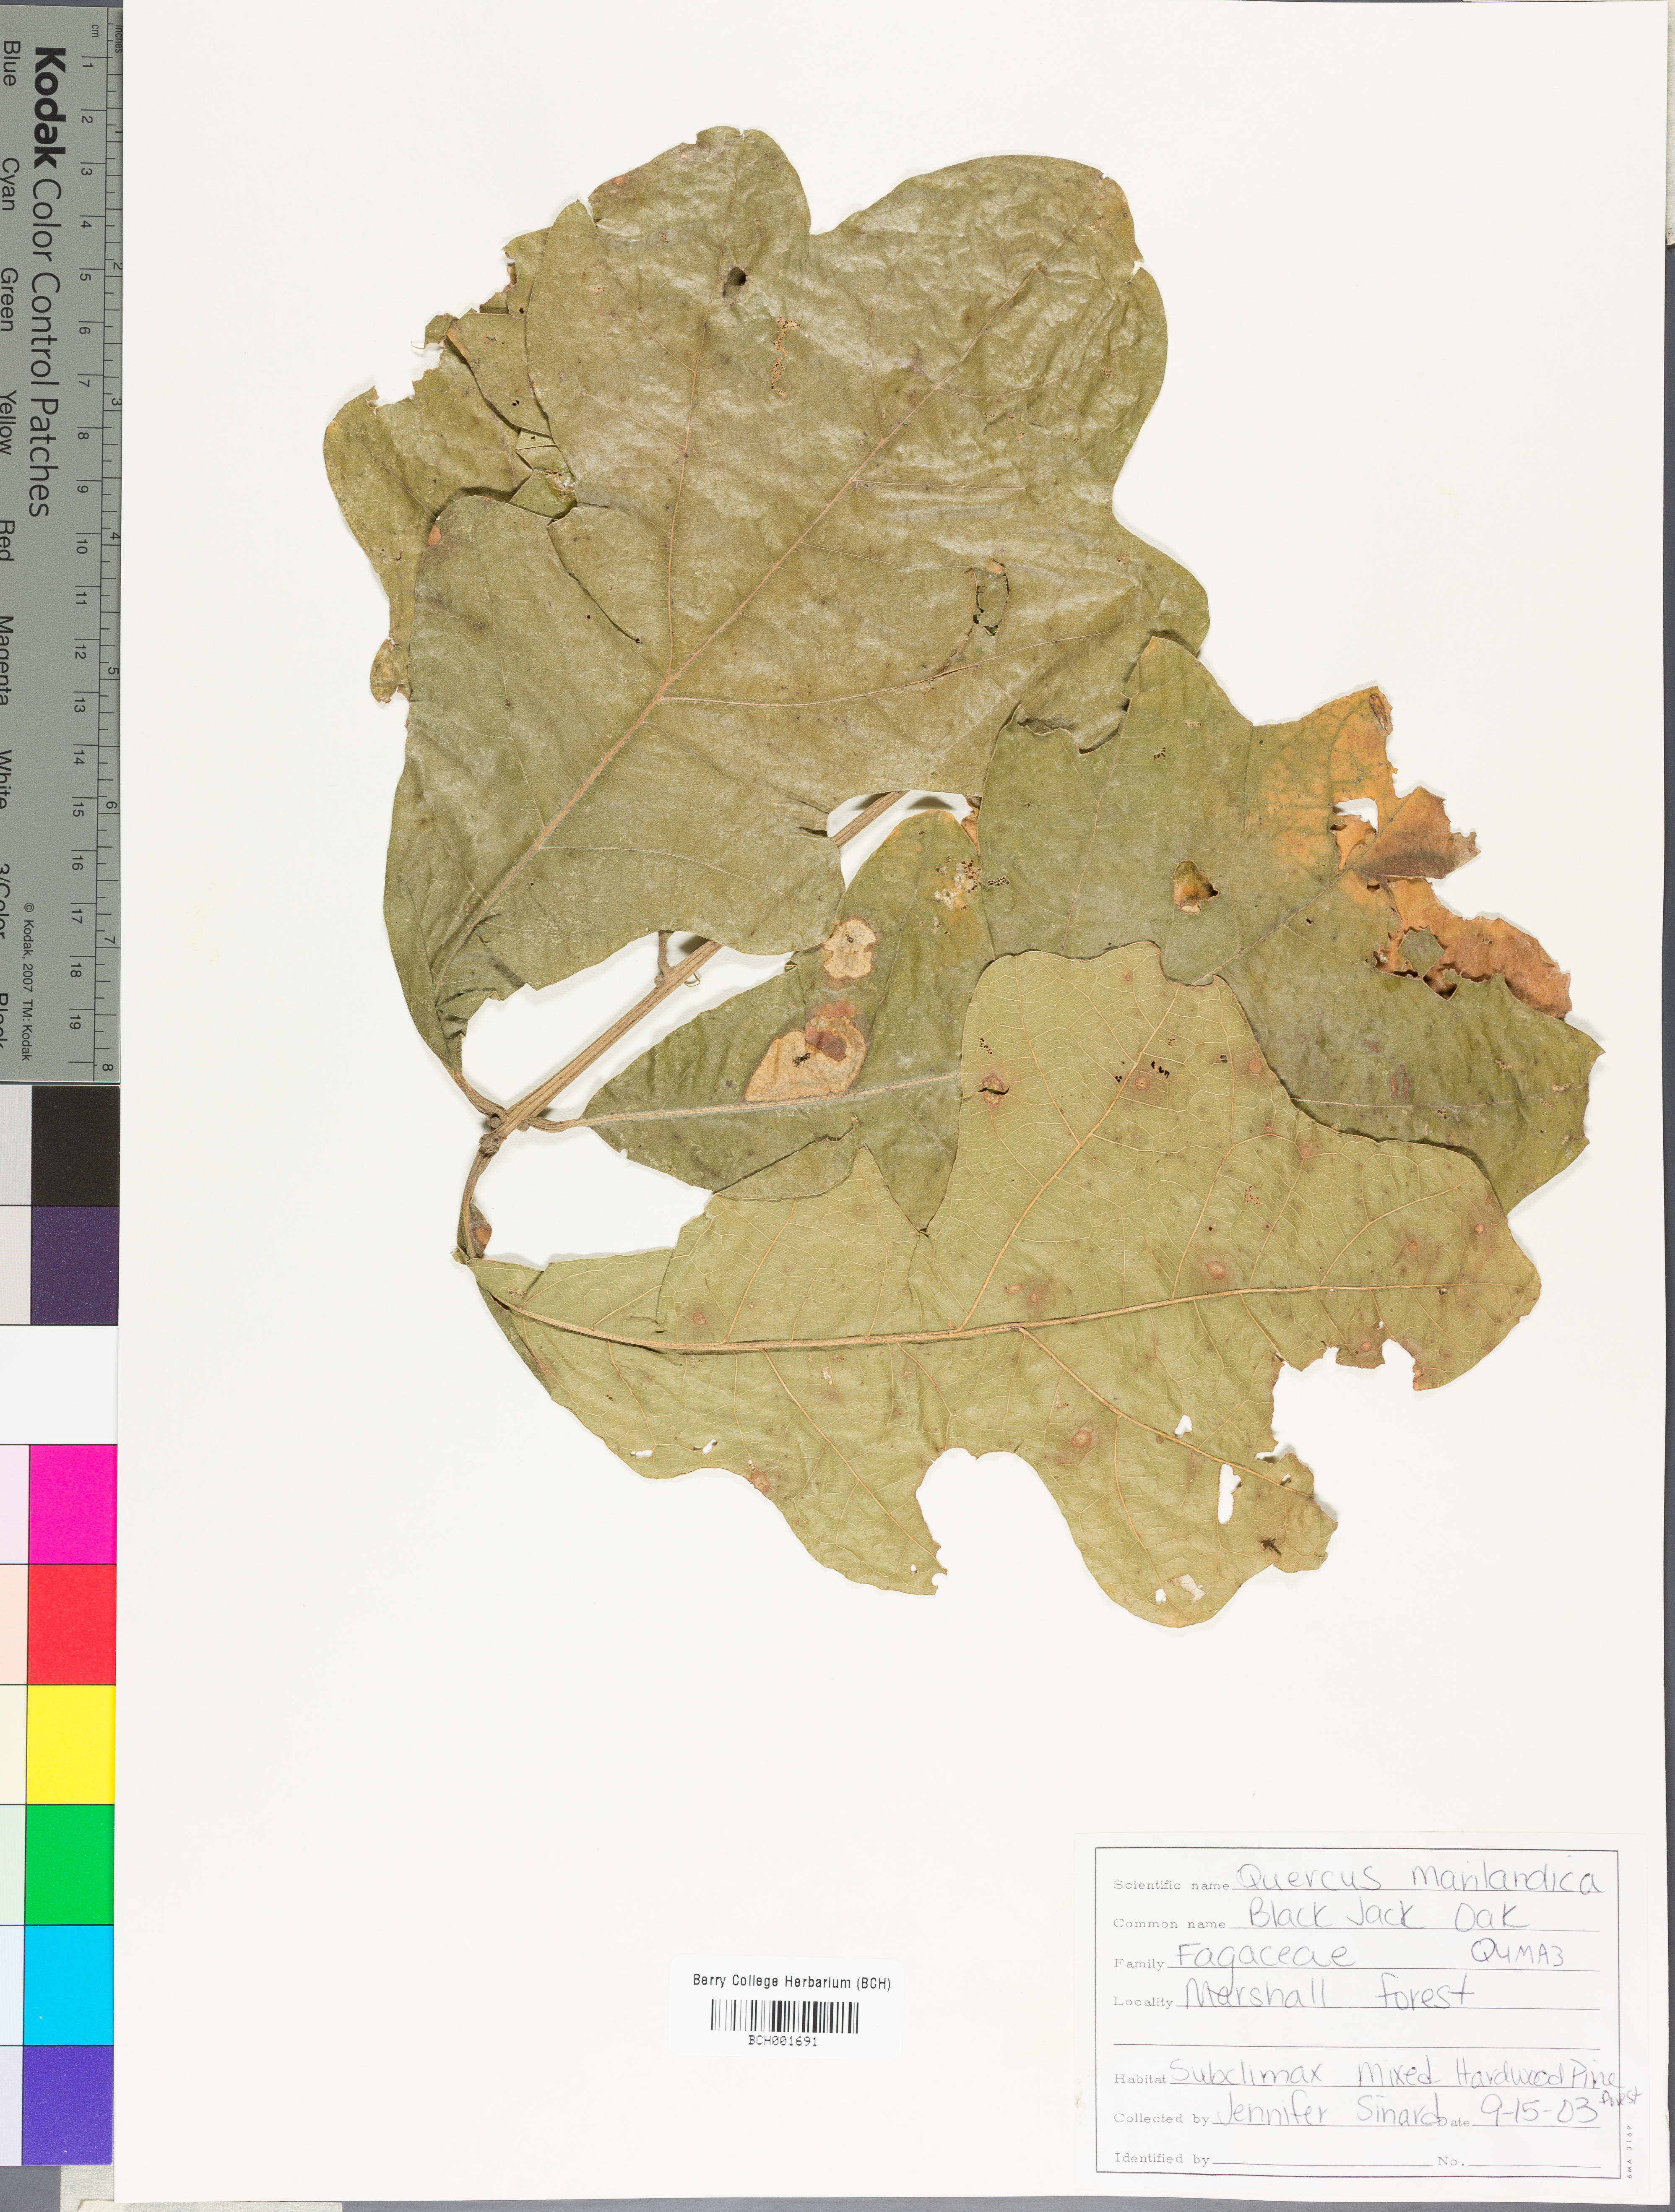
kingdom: Plantae
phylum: Tracheophyta
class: Magnoliopsida
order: Fagales
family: Fagaceae
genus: Quercus
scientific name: Quercus marilandica
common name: Blackjack oak
